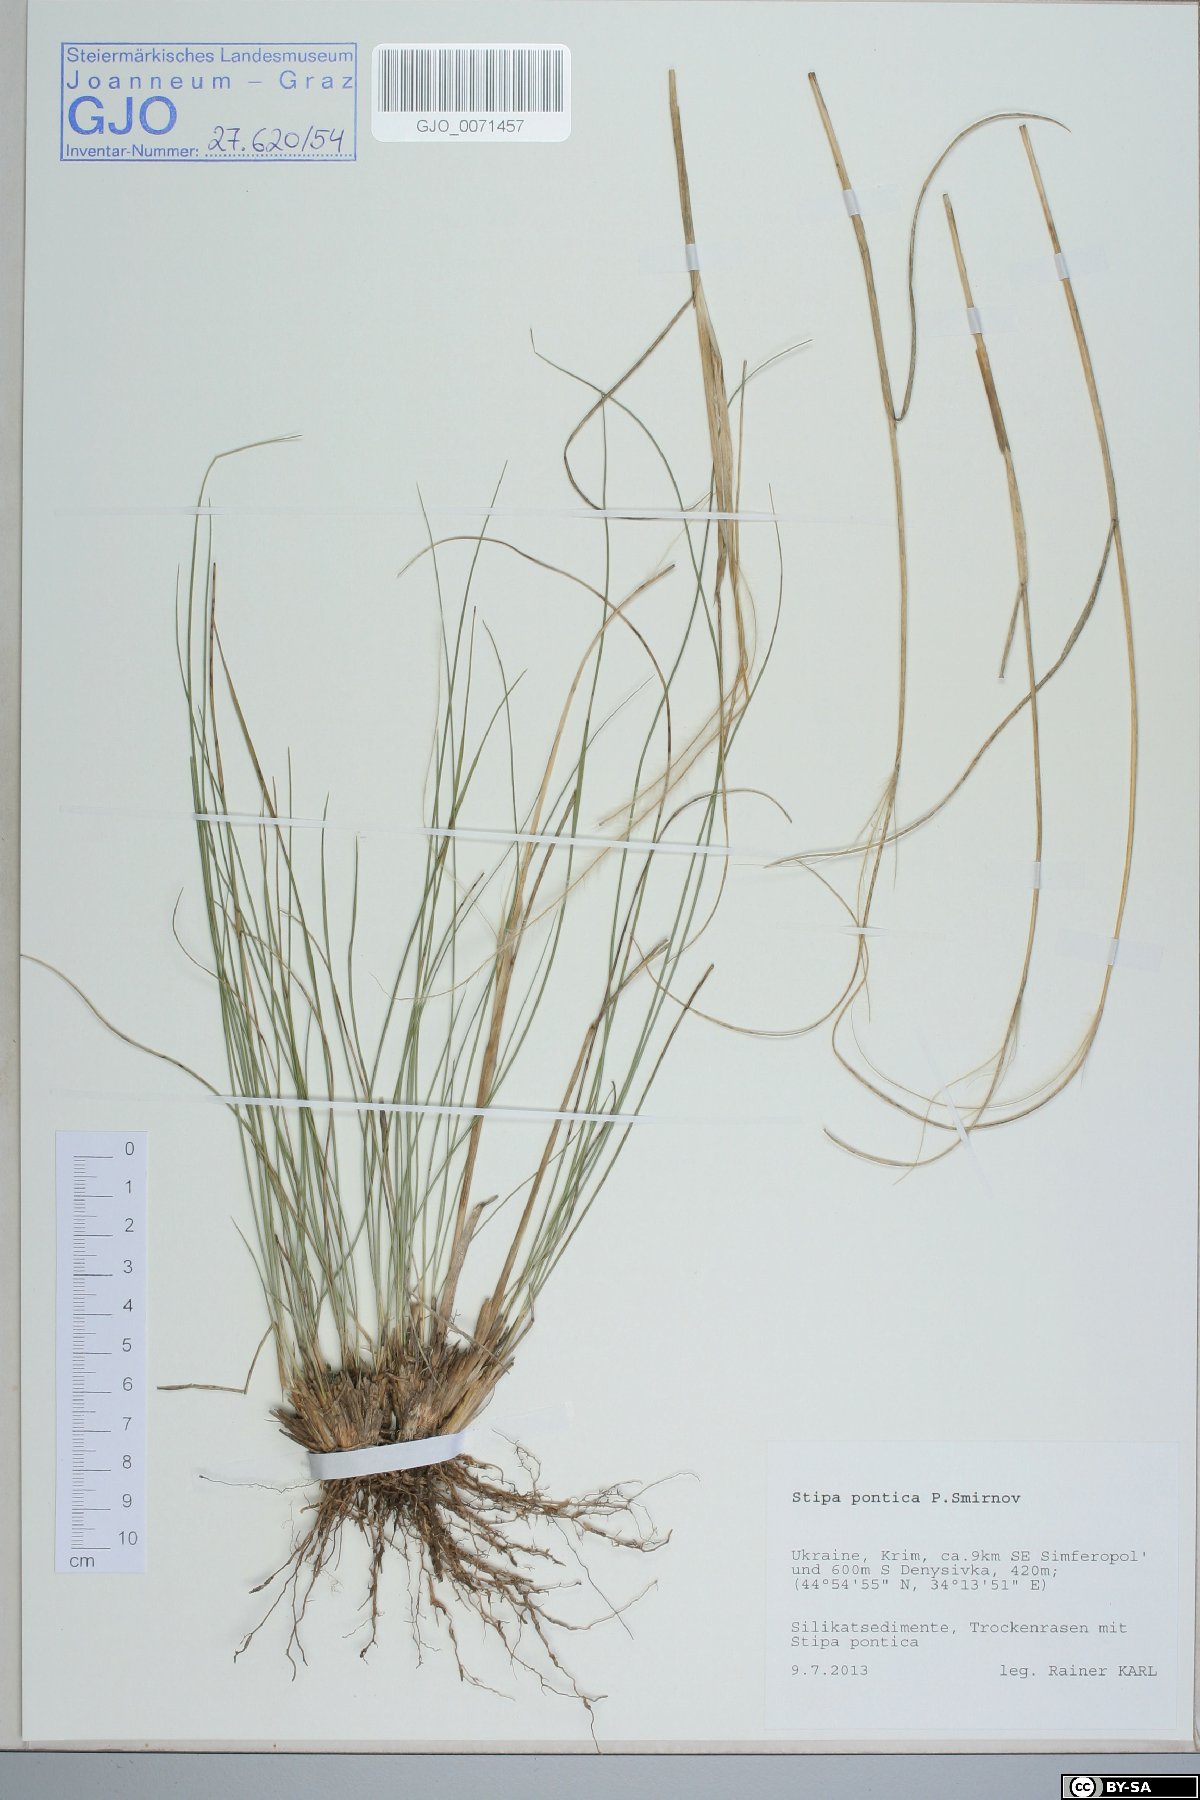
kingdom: Plantae
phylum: Tracheophyta
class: Liliopsida
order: Poales
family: Poaceae
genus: Stipa
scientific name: Stipa pontica
